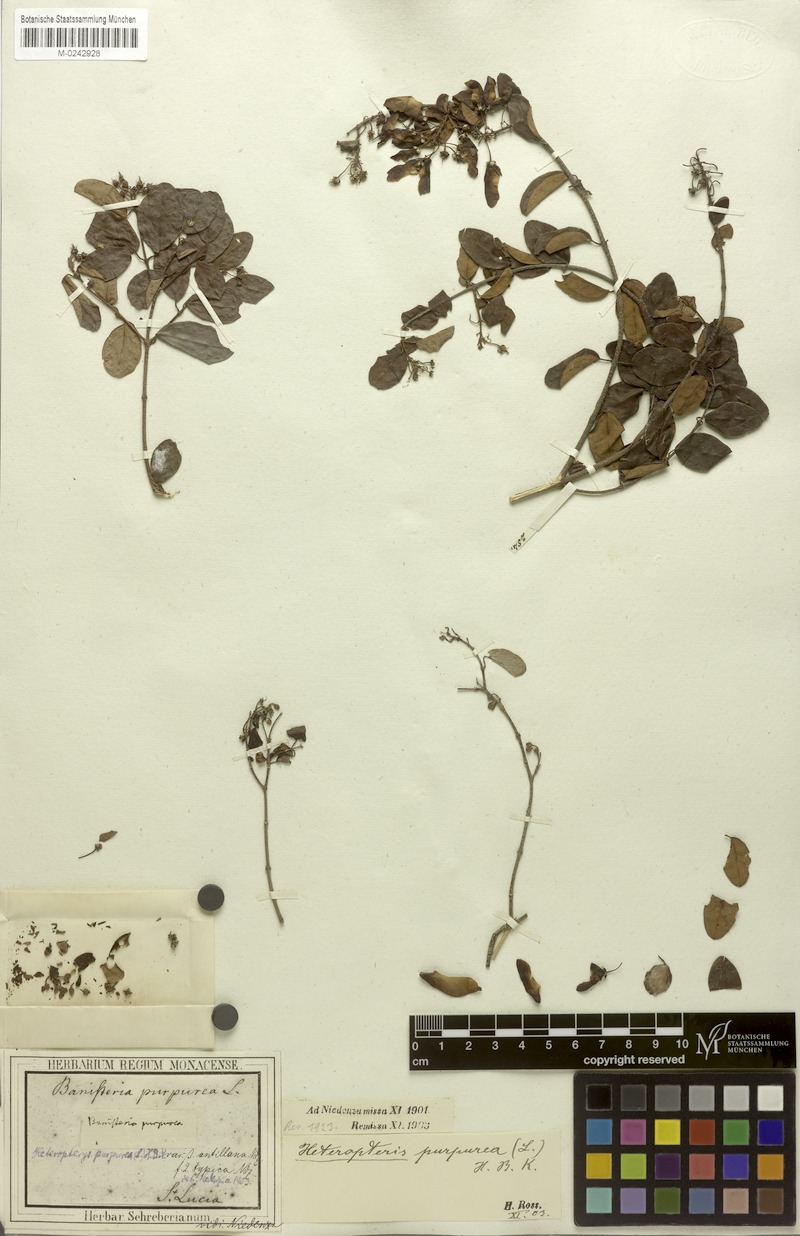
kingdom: Plantae
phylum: Tracheophyta
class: Magnoliopsida
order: Malpighiales
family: Malpighiaceae
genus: Heteropterys
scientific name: Heteropterys purpurea
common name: Bull withe
